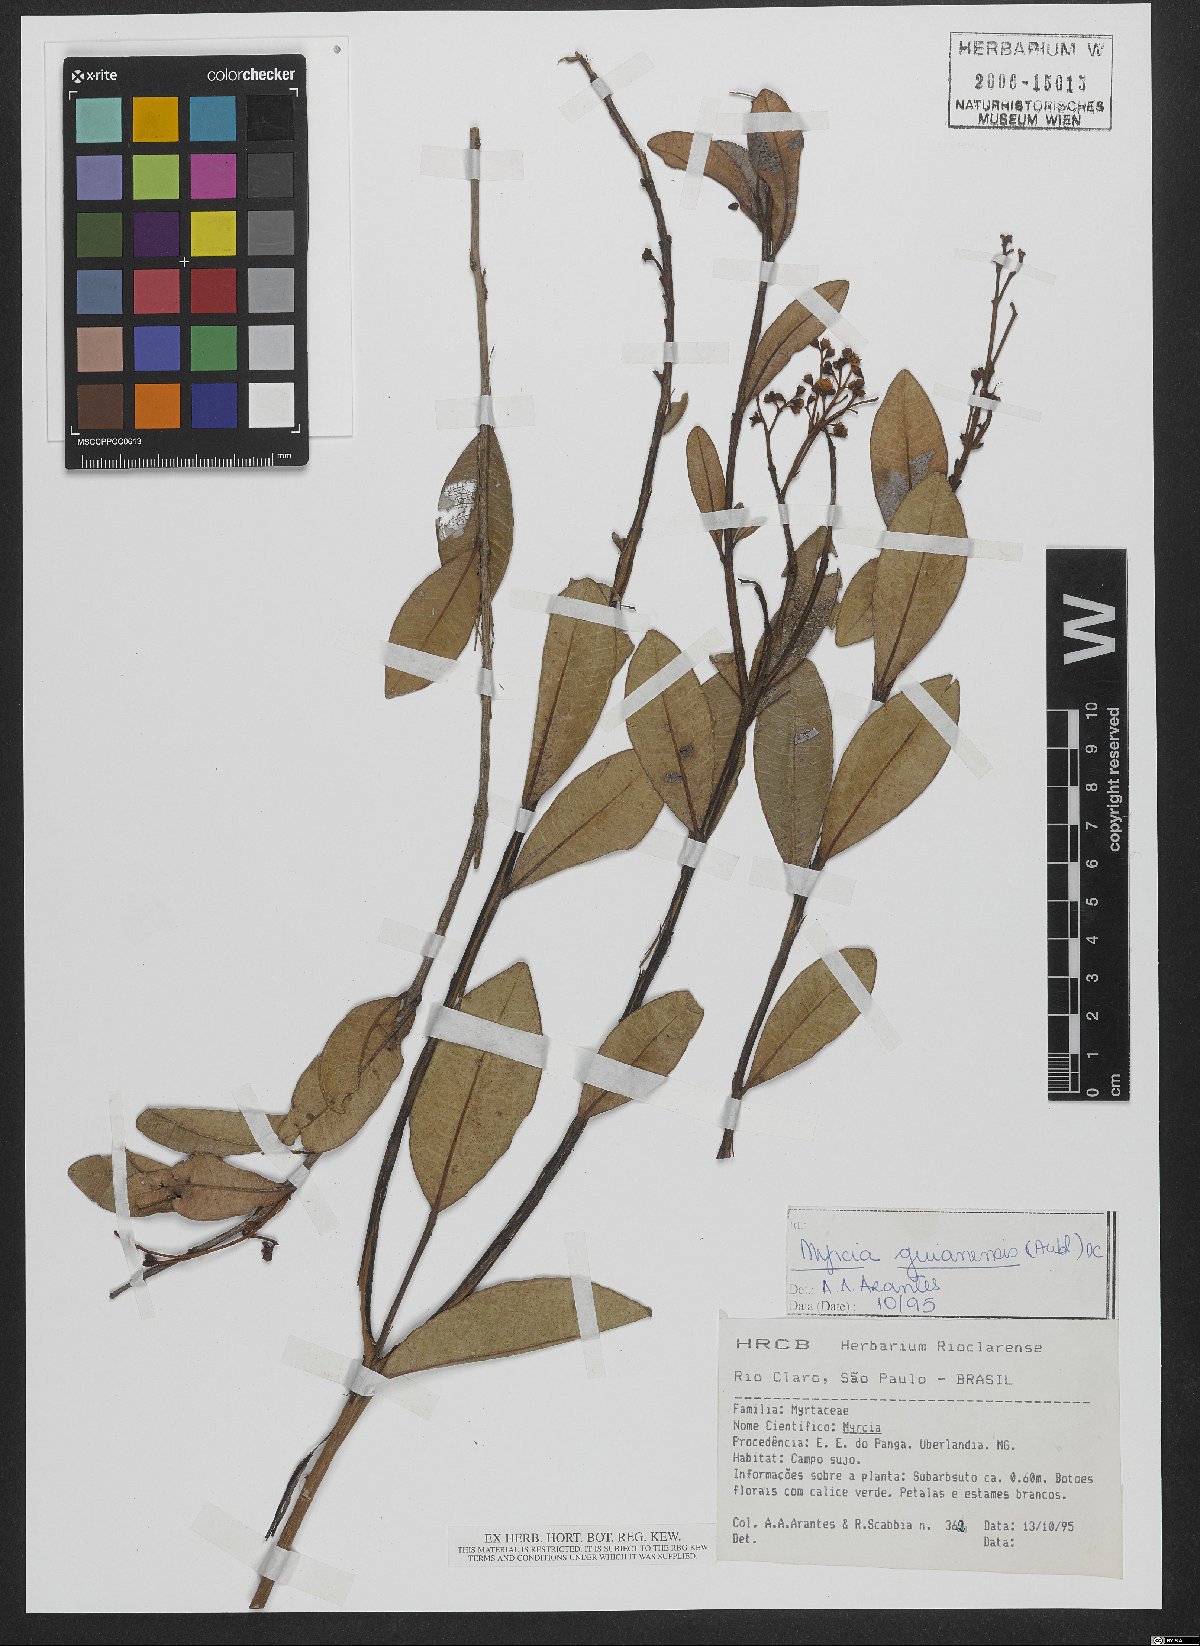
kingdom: Plantae
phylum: Tracheophyta
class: Magnoliopsida
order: Myrtales
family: Myrtaceae
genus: Myrcia
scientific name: Myrcia guianensis
